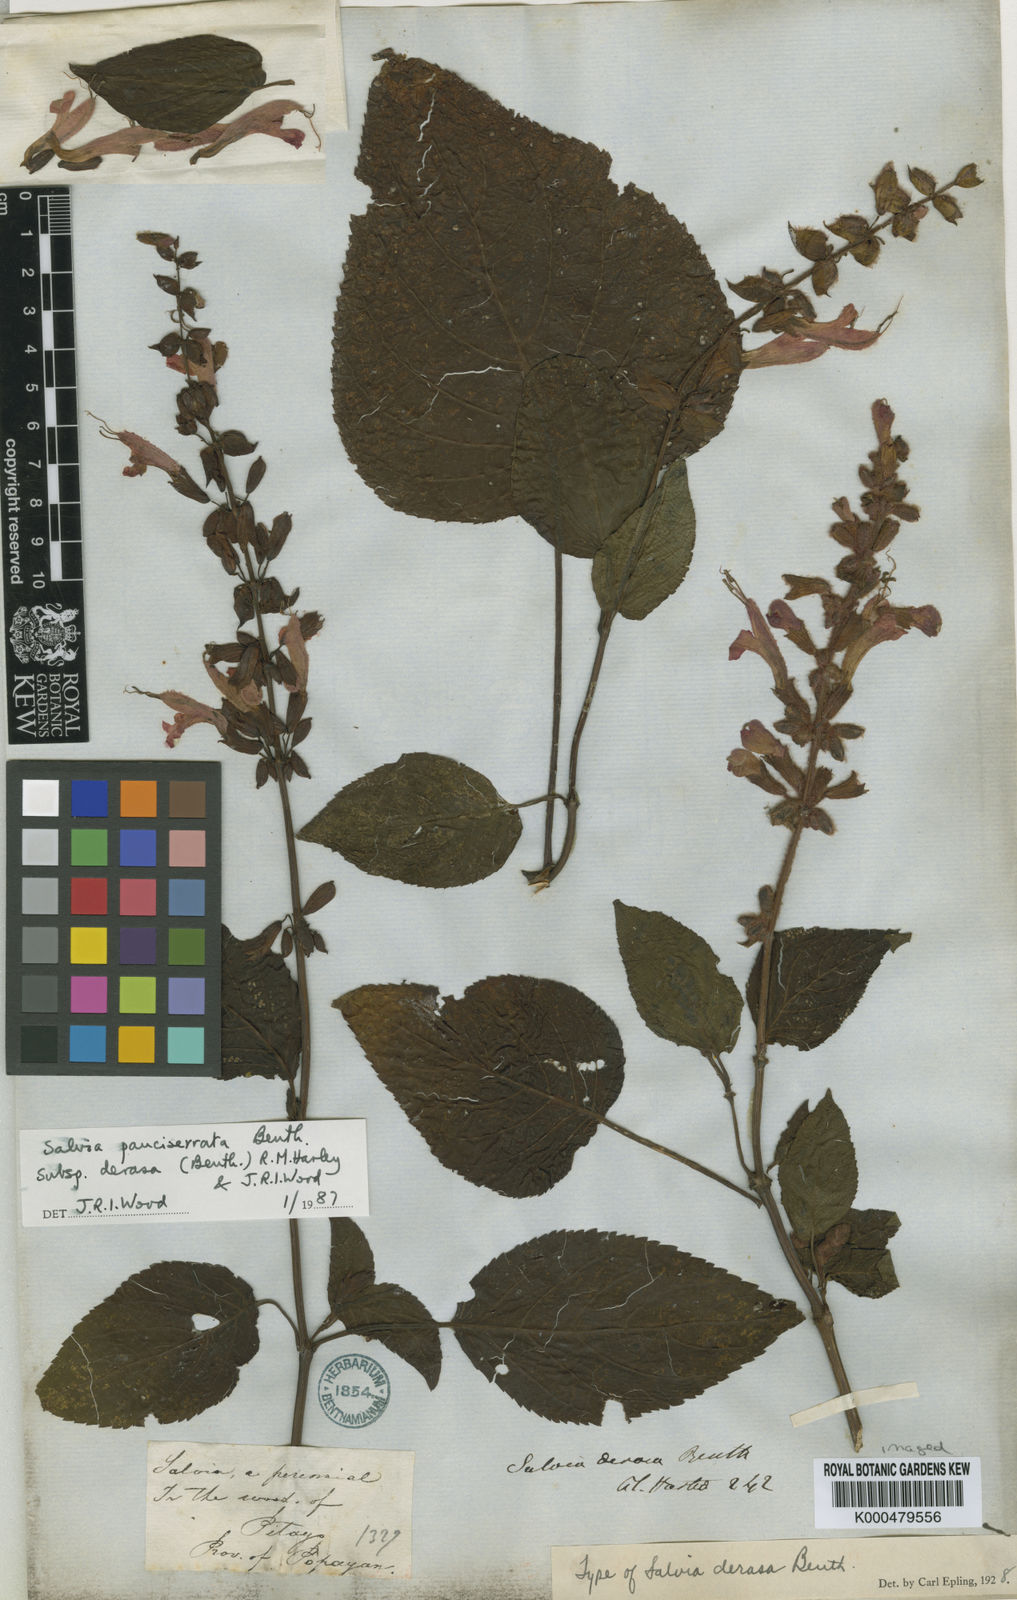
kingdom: Plantae
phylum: Tracheophyta
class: Magnoliopsida
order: Lamiales
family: Lamiaceae
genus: Salvia
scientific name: Salvia pauciserrata
